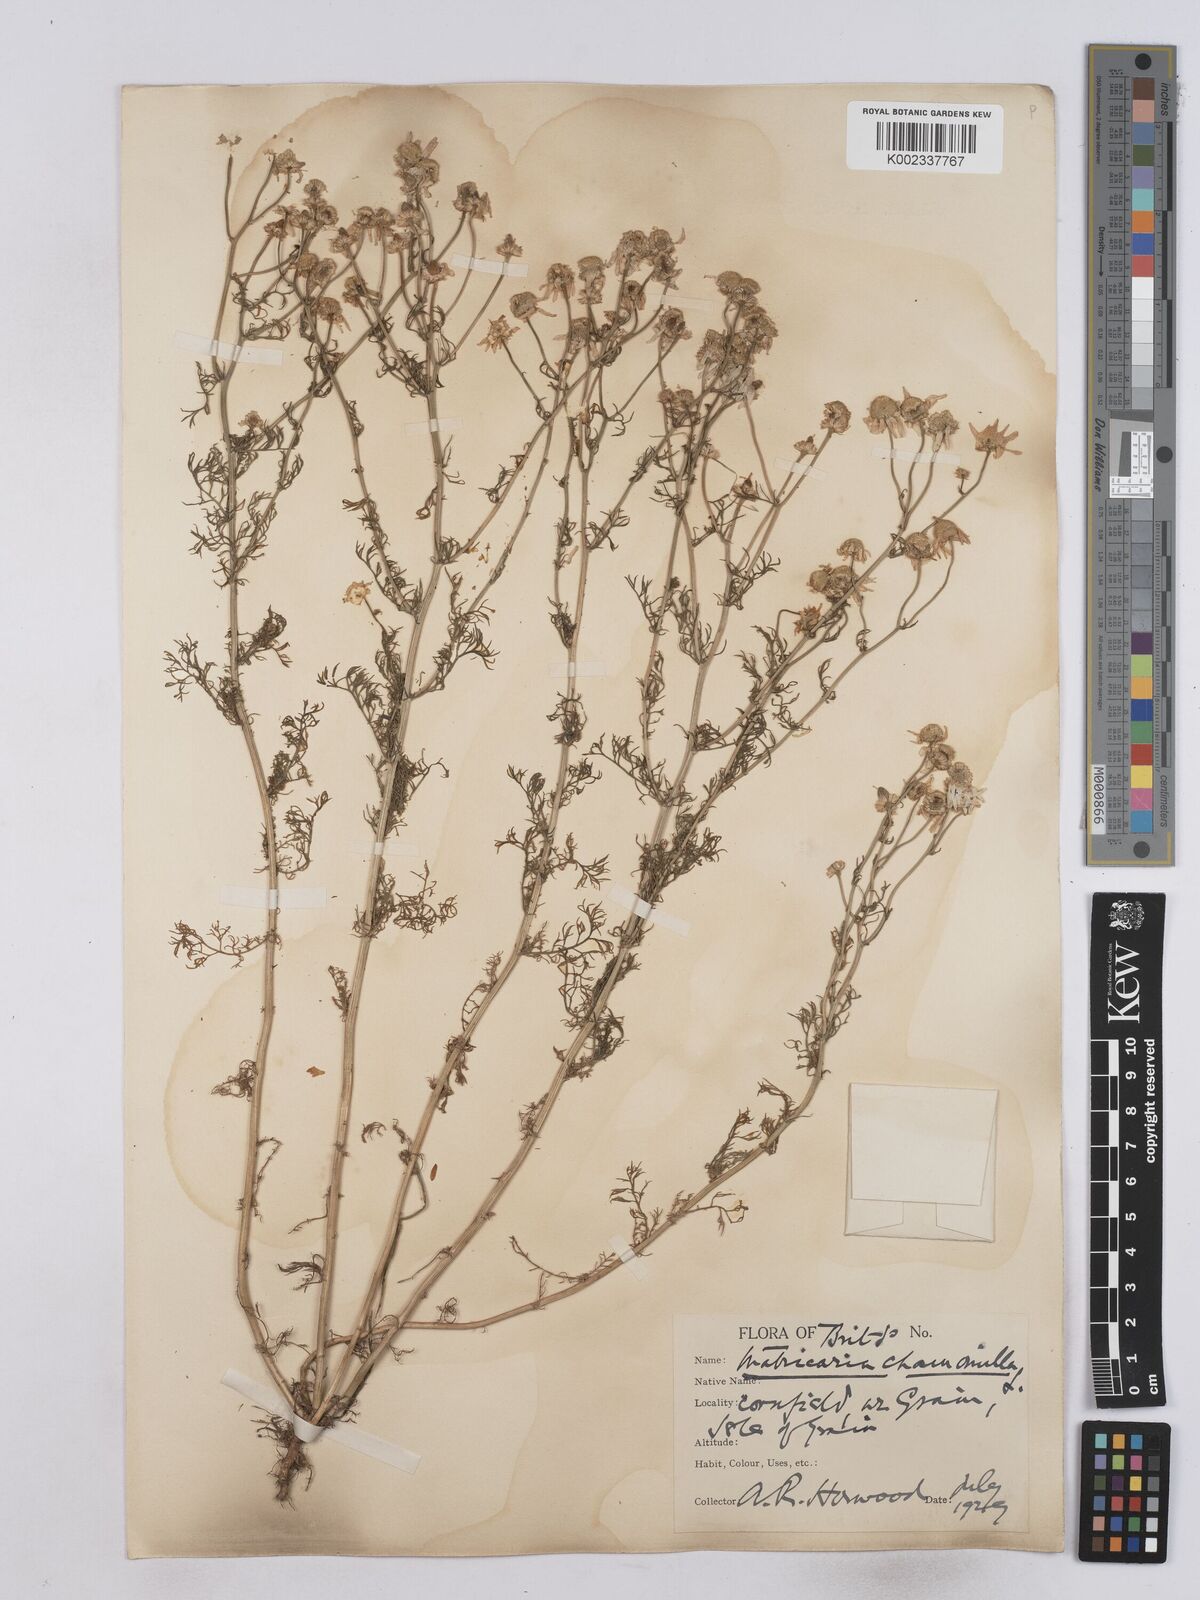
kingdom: Plantae
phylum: Tracheophyta
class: Magnoliopsida
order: Asterales
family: Asteraceae
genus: Matricaria
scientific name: Matricaria chamomilla
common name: Scented mayweed
